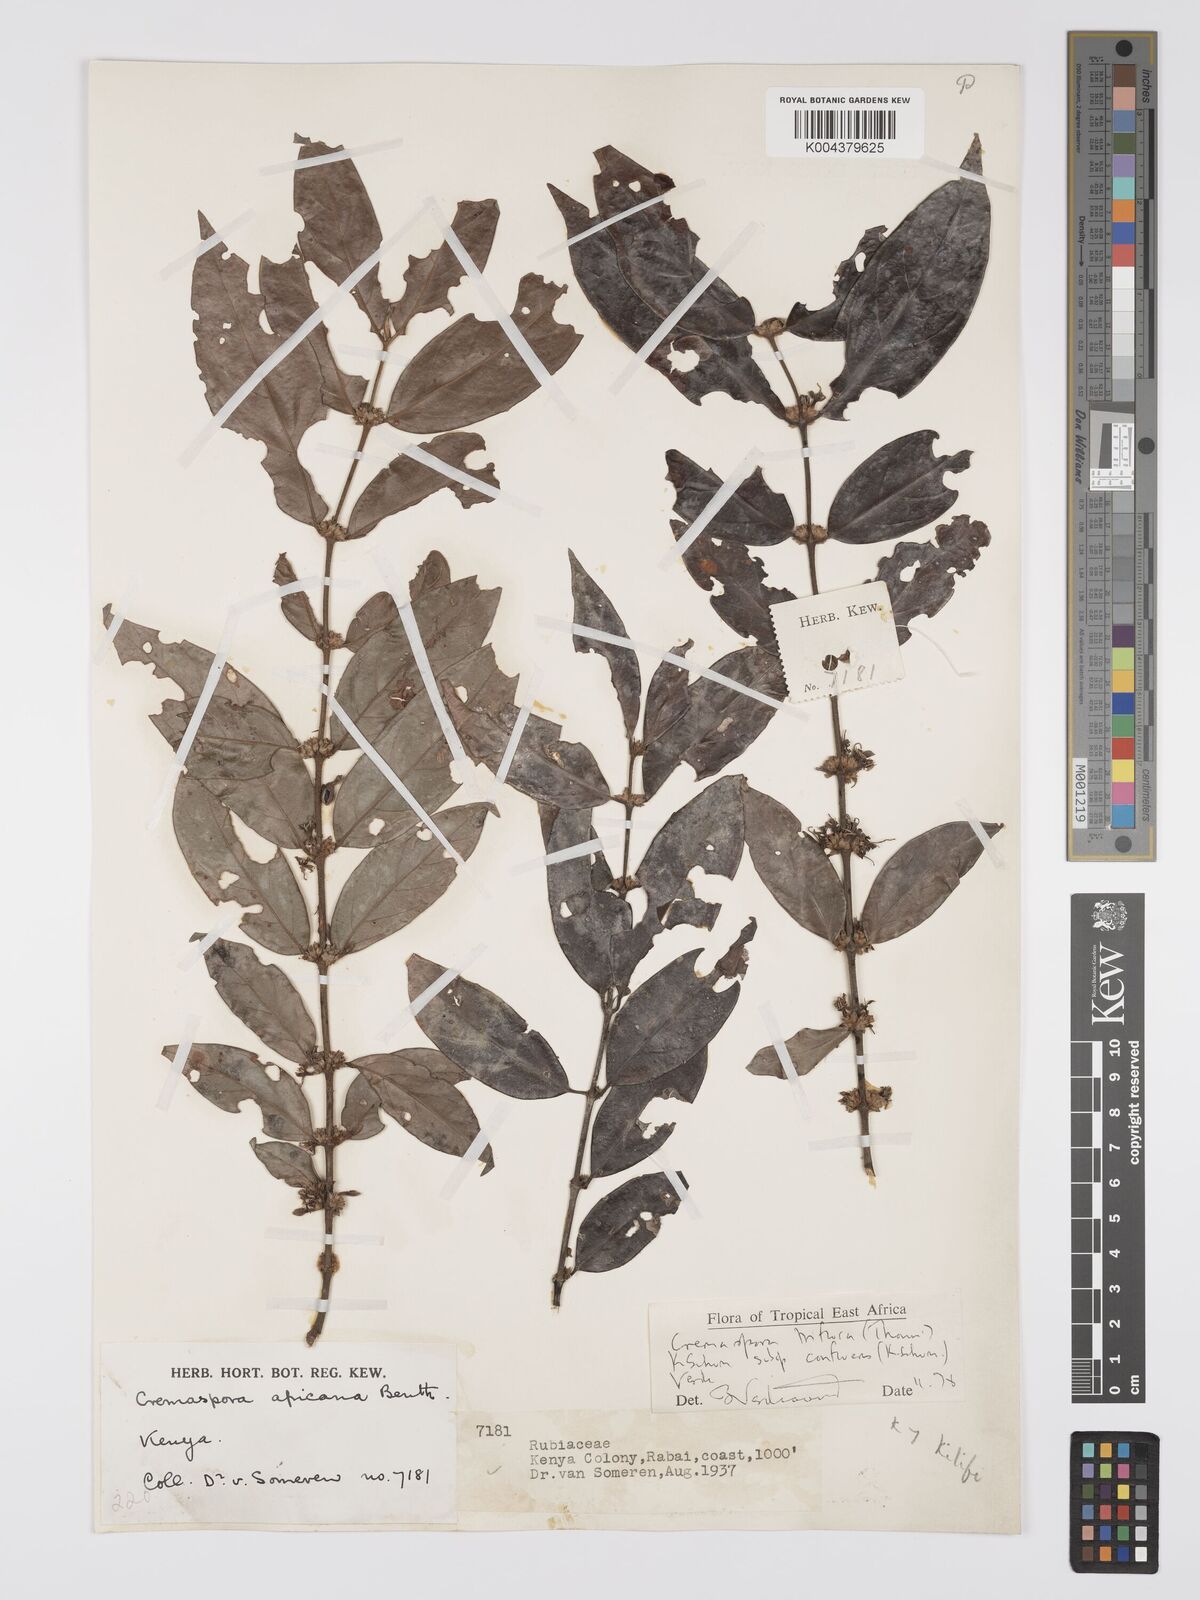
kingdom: Plantae
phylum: Tracheophyta
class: Magnoliopsida
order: Gentianales
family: Rubiaceae
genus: Cremaspora
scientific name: Cremaspora triflora
